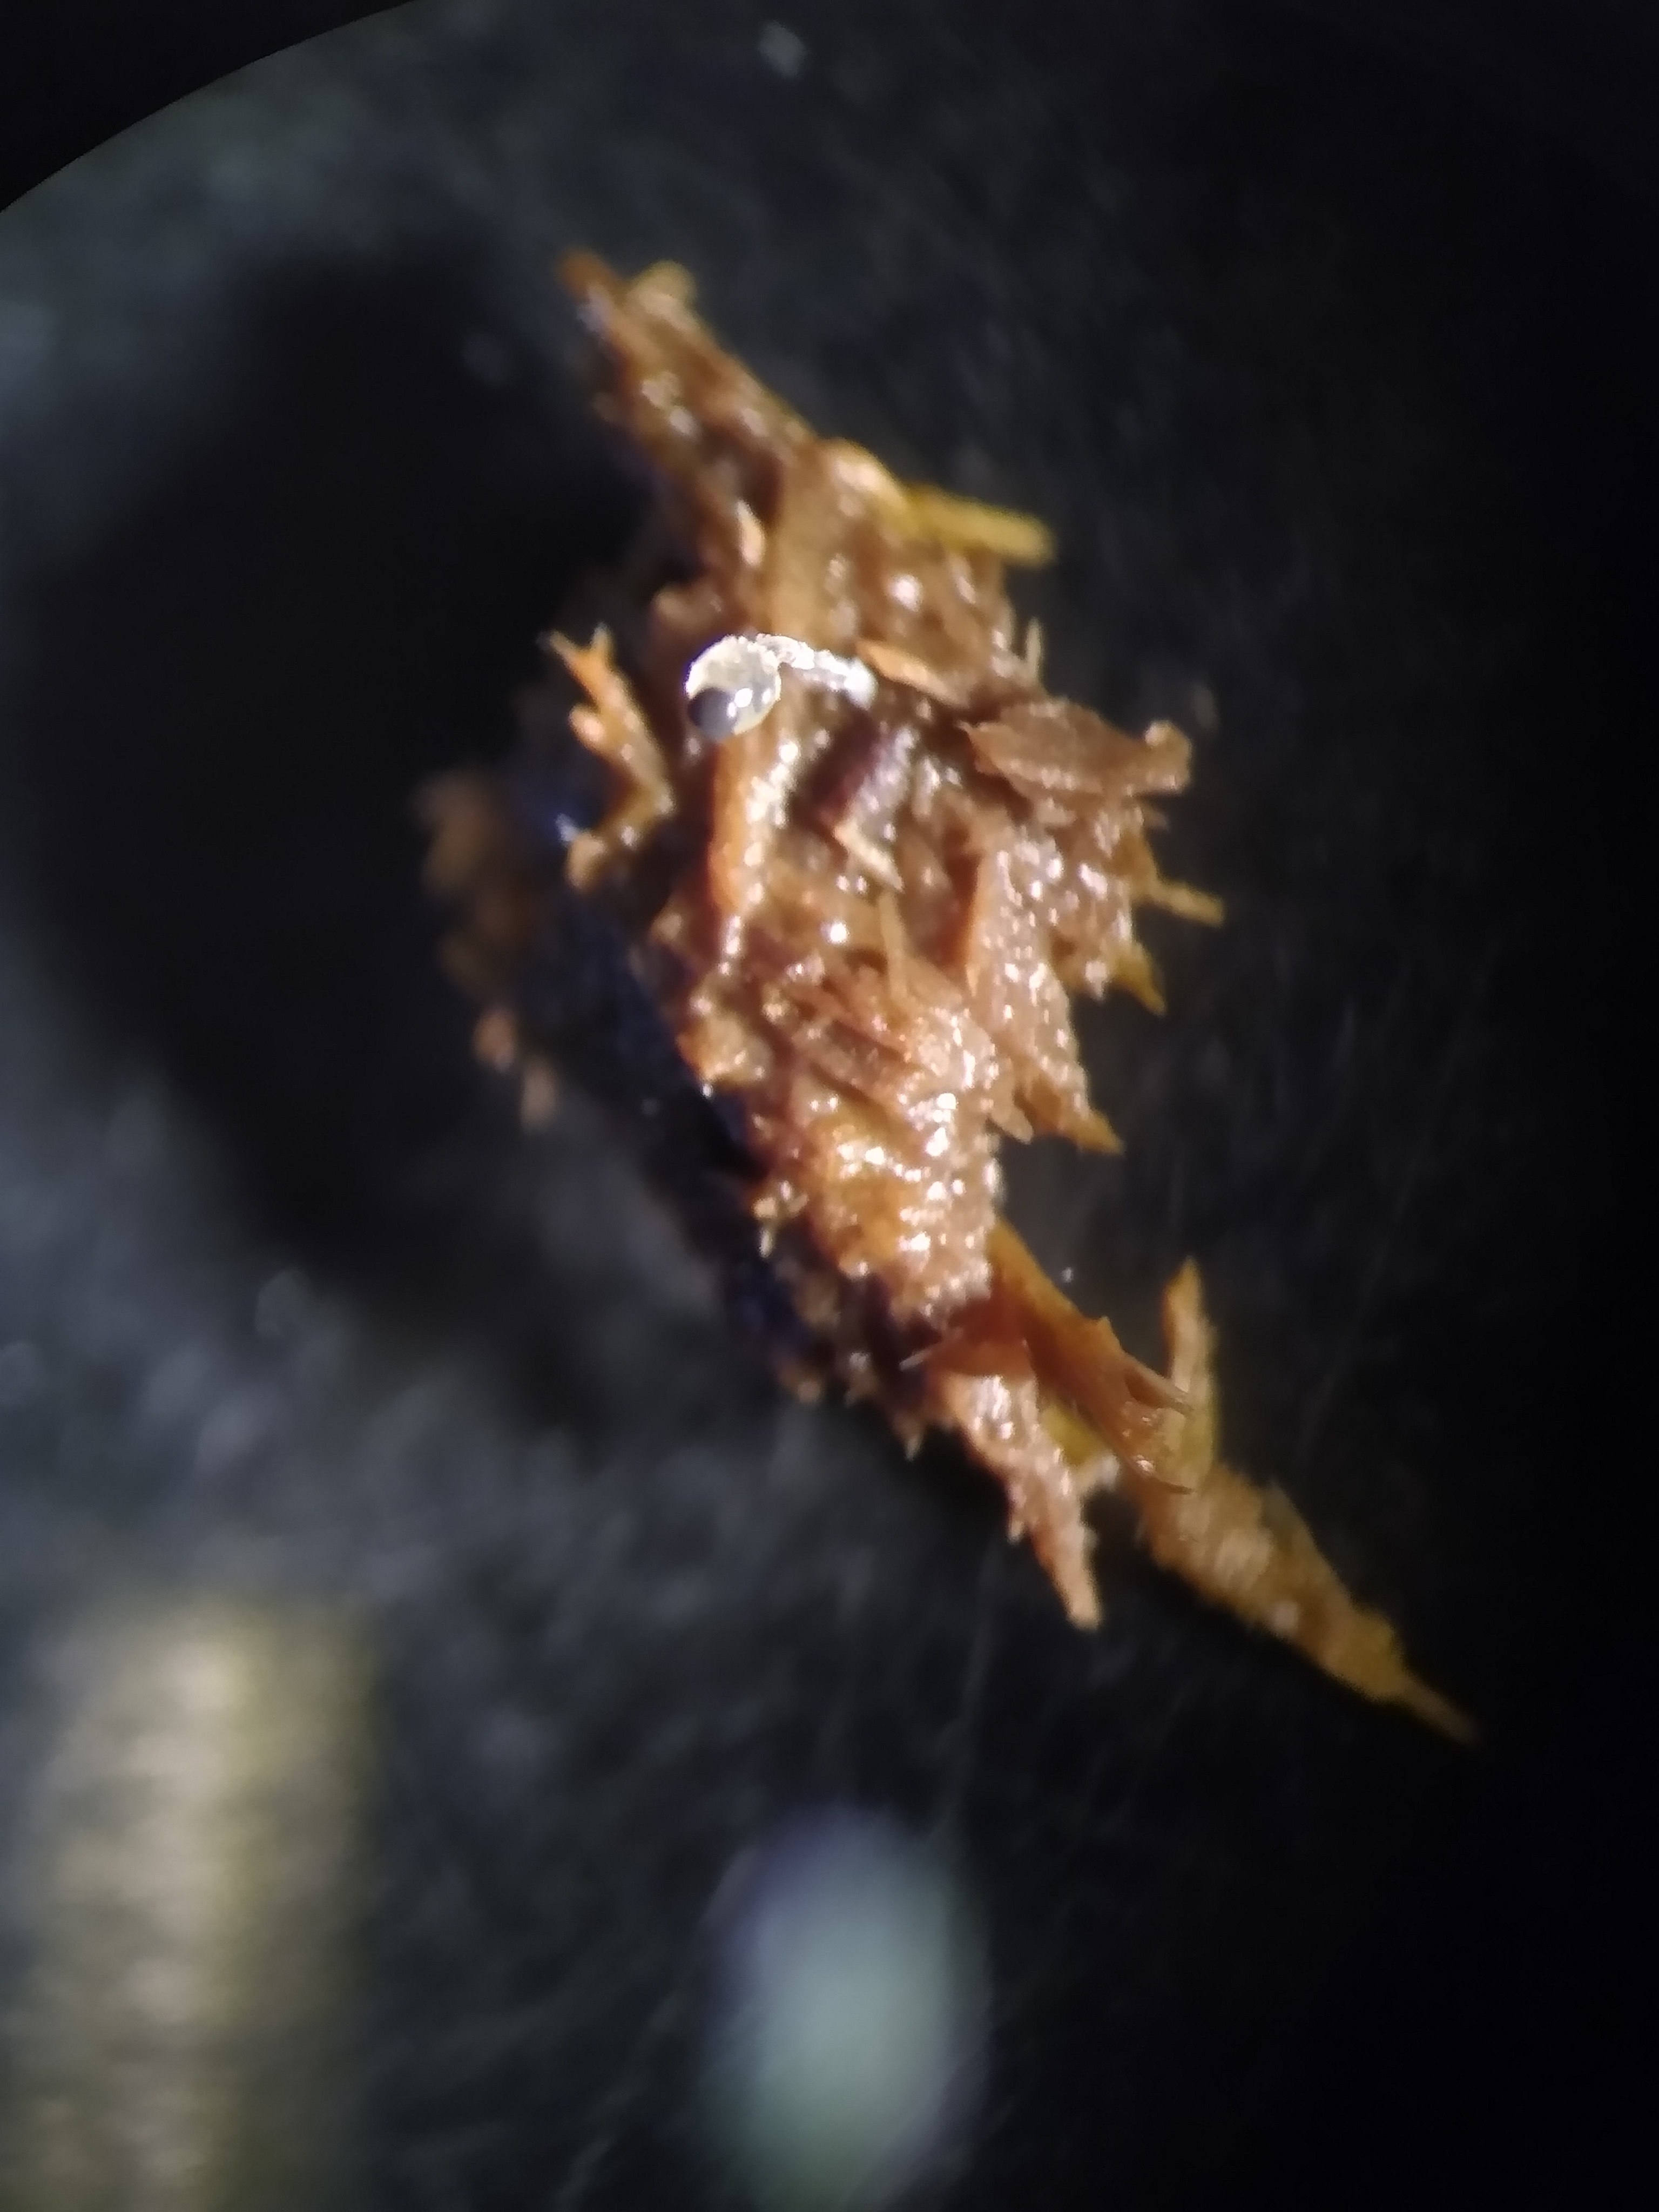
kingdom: Fungi
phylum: Mucoromycota
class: Mucoromycetes
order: Mucorales
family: Pilobolaceae
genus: Pilobolus
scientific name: Pilobolus
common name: boldkaster
